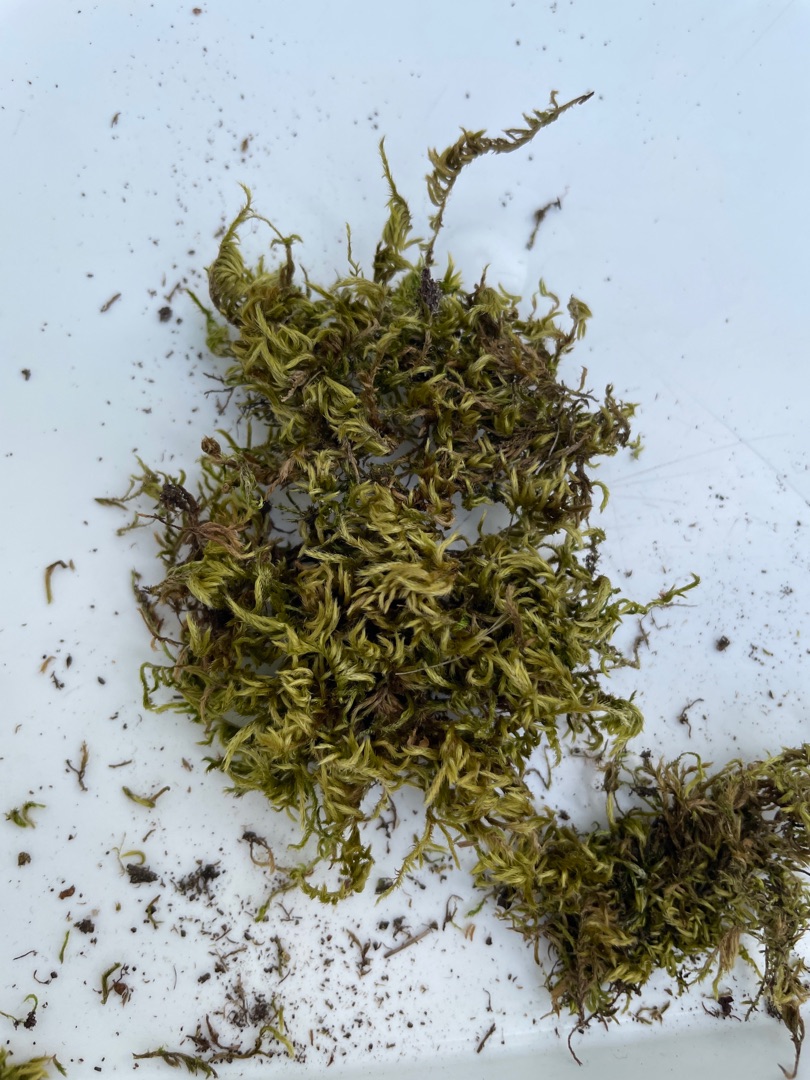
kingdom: Plantae
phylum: Bryophyta
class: Bryopsida
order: Hypnales
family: Brachytheciaceae
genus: Homalothecium
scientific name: Homalothecium sericeum
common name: Krybende silkemos
